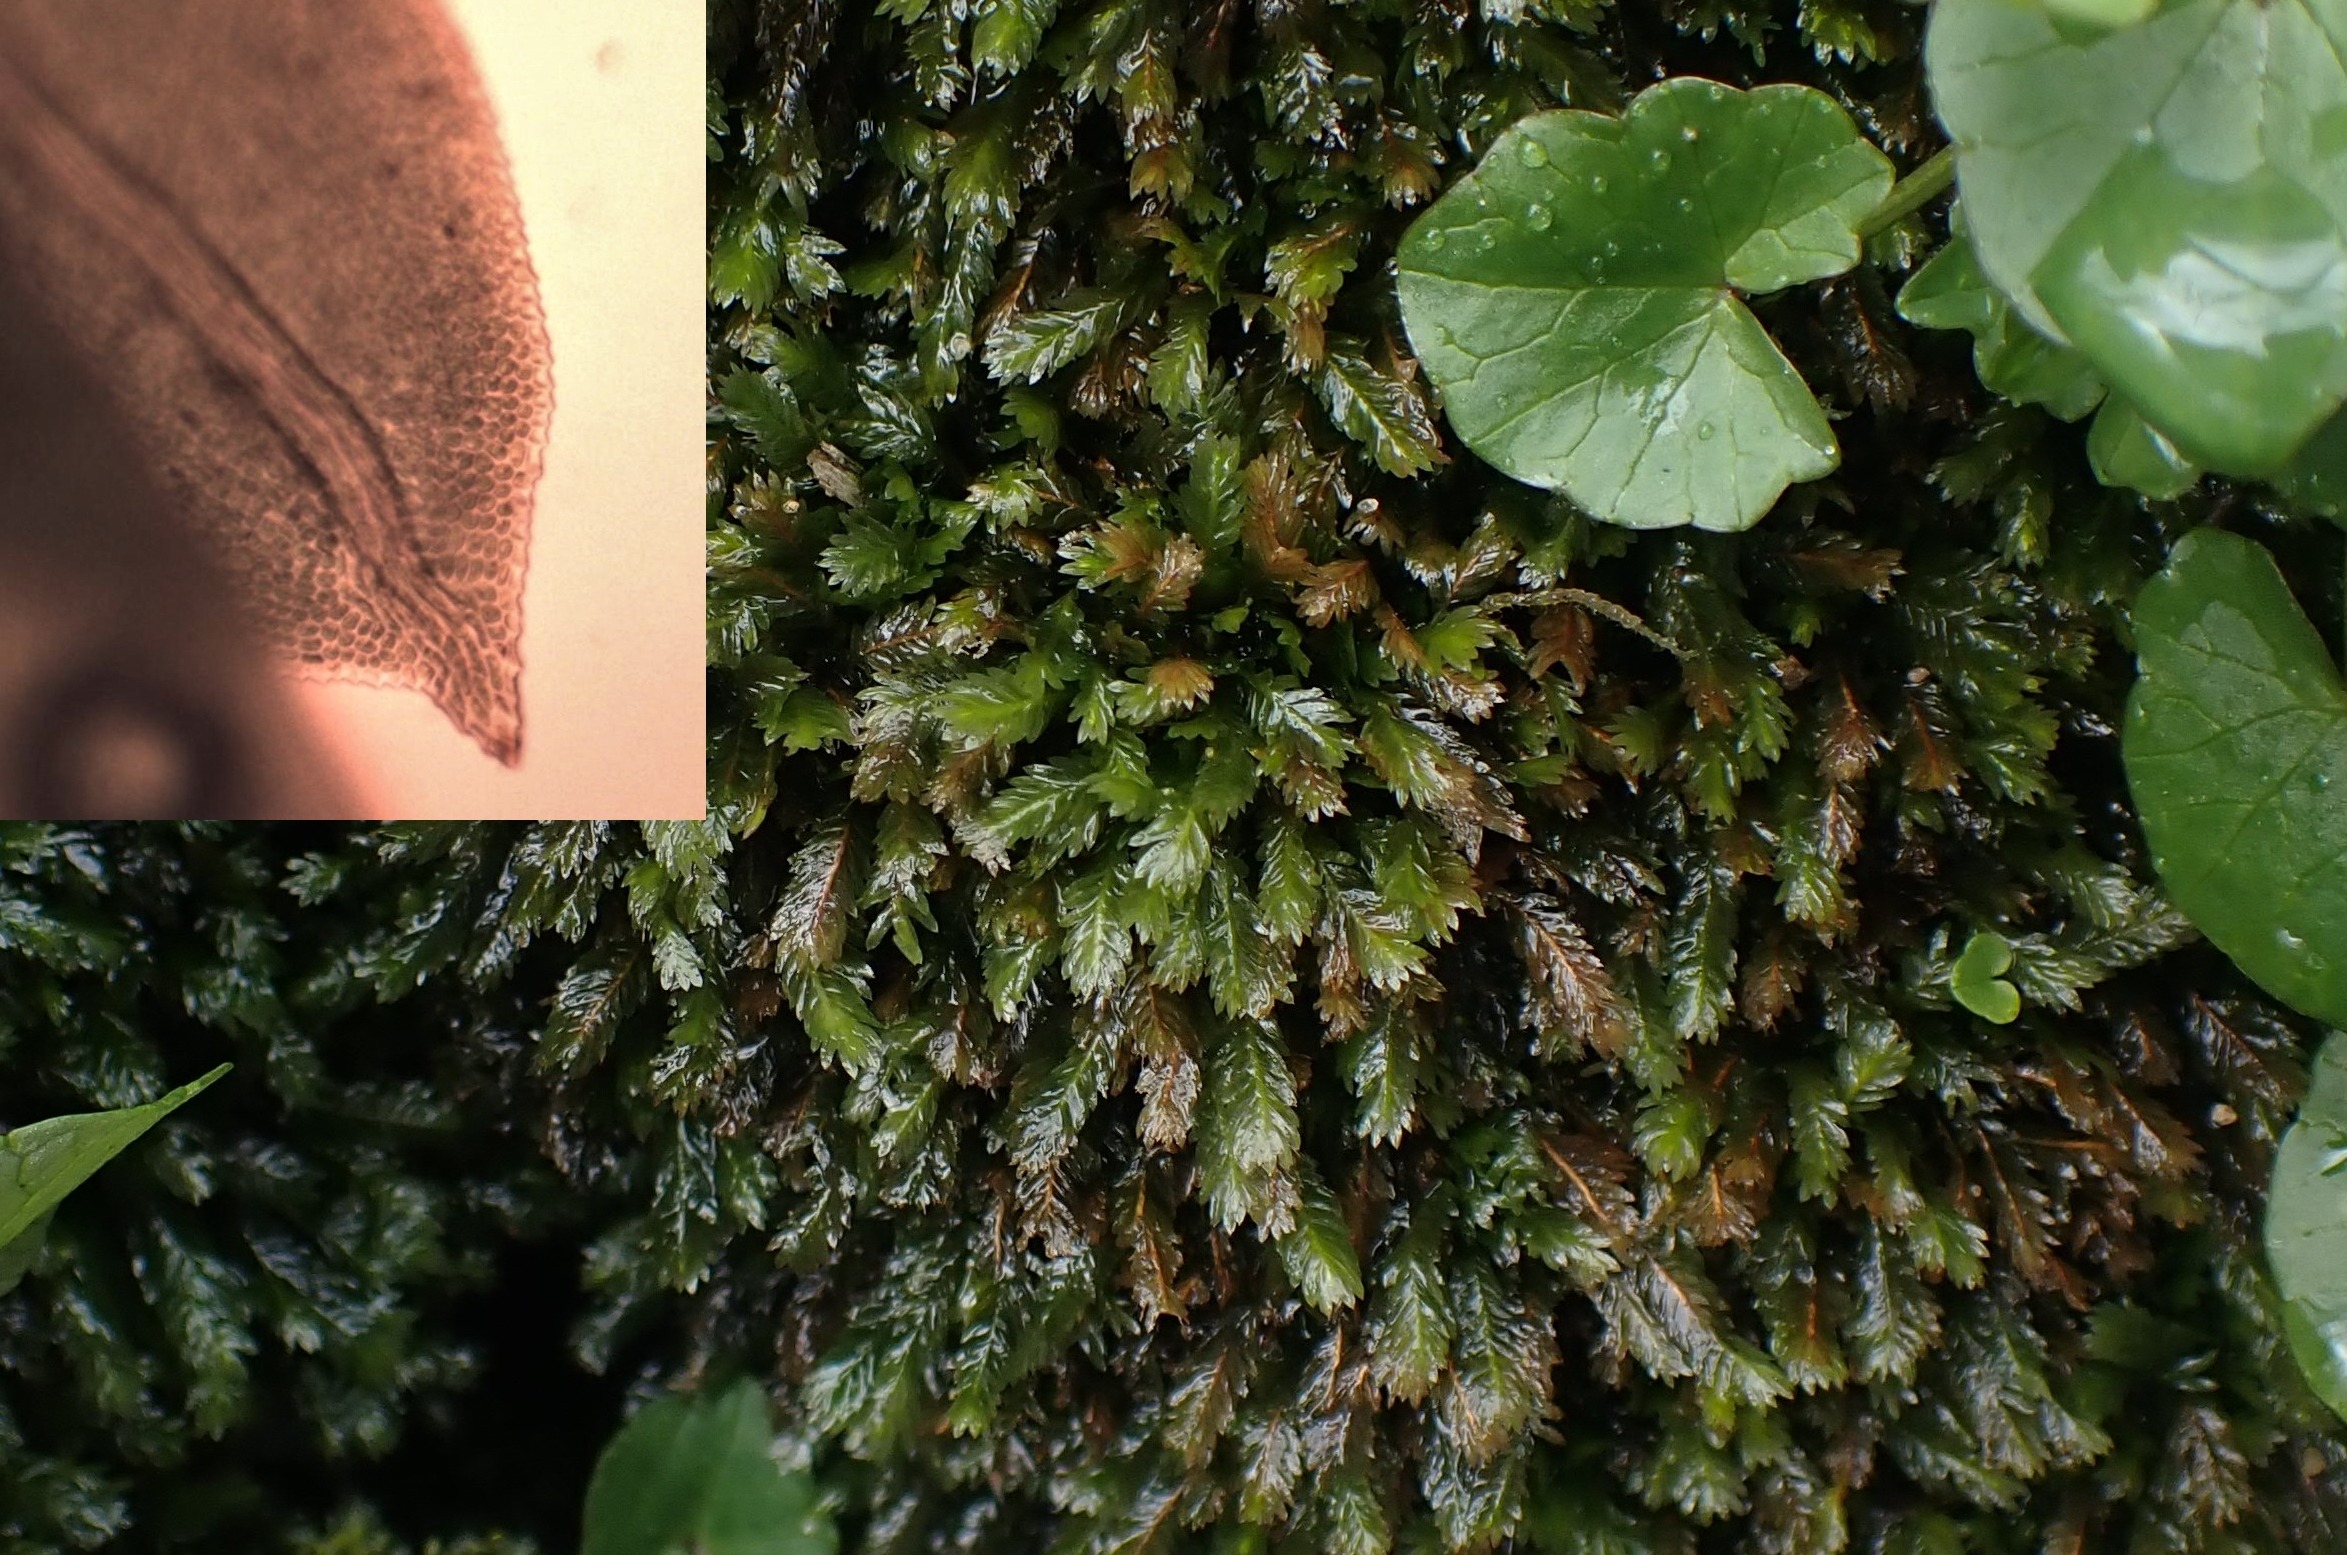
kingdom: Plantae
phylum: Bryophyta
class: Bryopsida
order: Dicranales
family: Fissidentaceae
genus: Fissidens
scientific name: Fissidens taxifolius
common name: Taksbladet rademos
